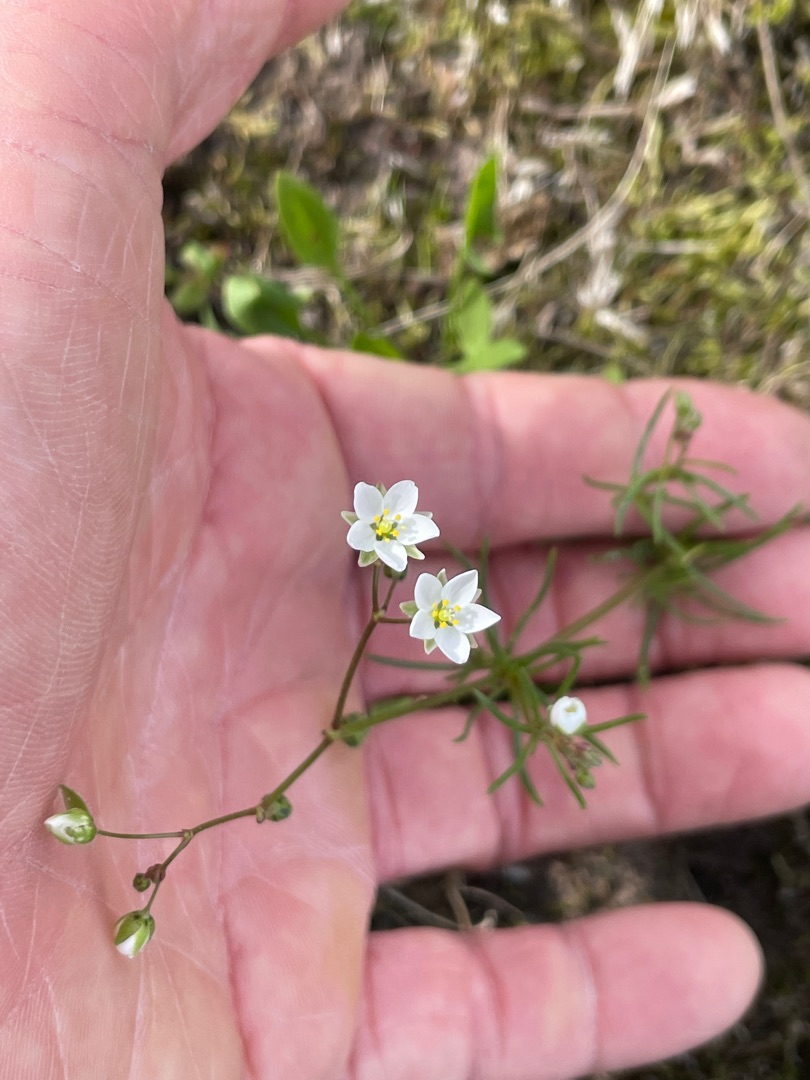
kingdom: Plantae
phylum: Tracheophyta
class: Magnoliopsida
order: Caryophyllales
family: Caryophyllaceae
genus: Spergula
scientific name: Spergula arvensis
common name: Almindelig spergel
